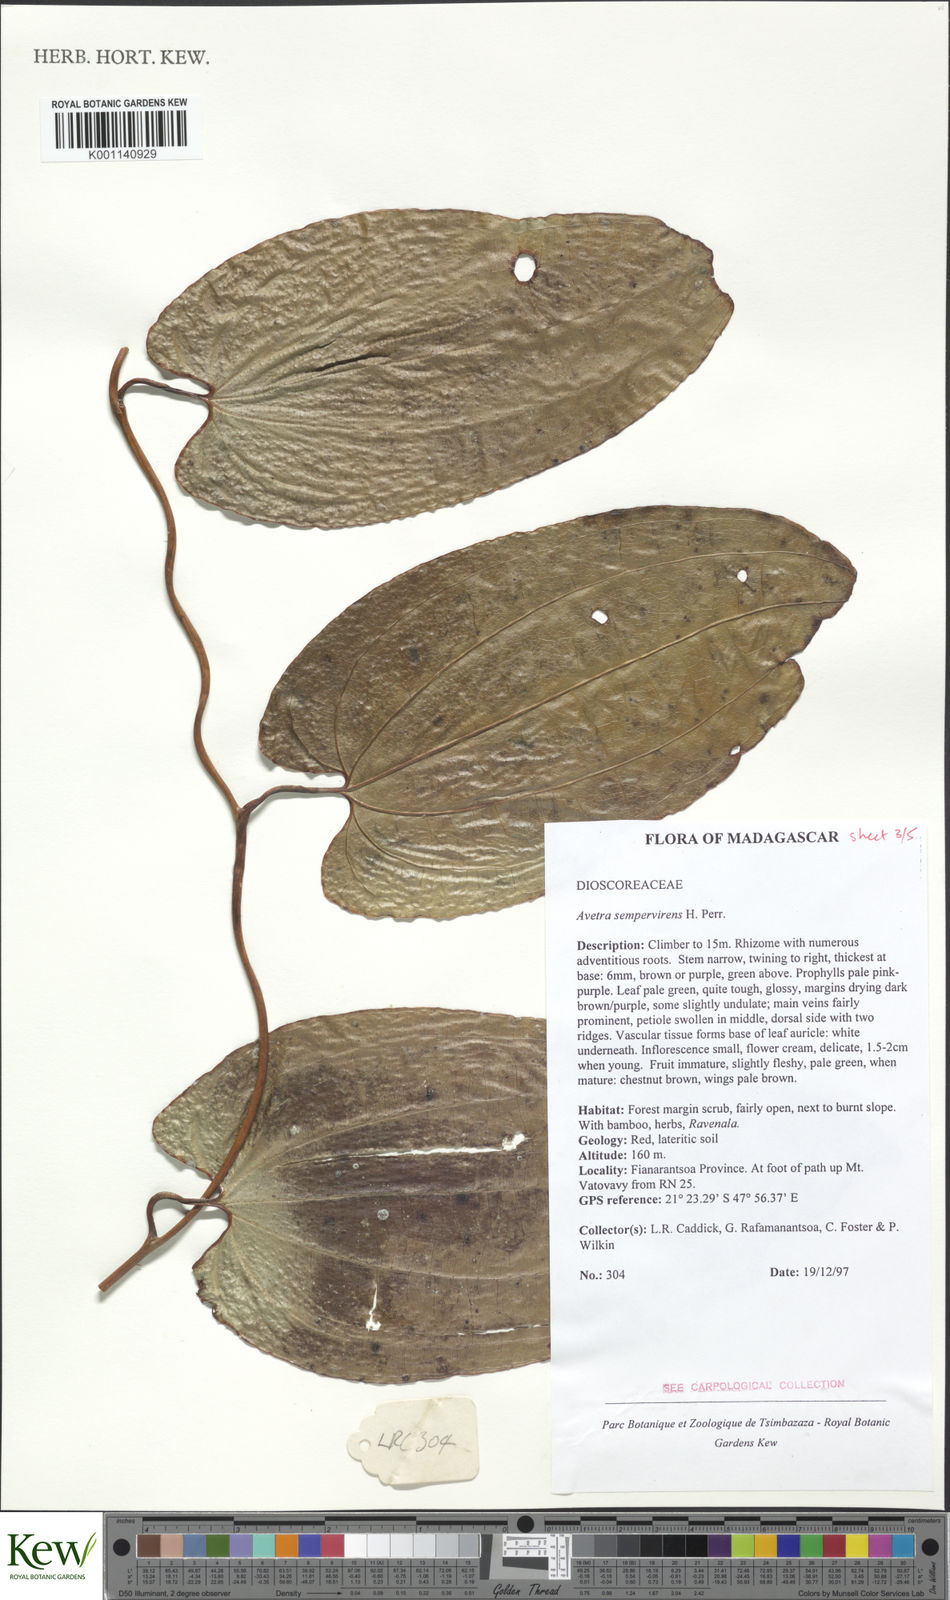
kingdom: Plantae
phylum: Tracheophyta
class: Liliopsida
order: Dioscoreales
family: Dioscoreaceae
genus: Trichopus
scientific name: Trichopus sempervirens
